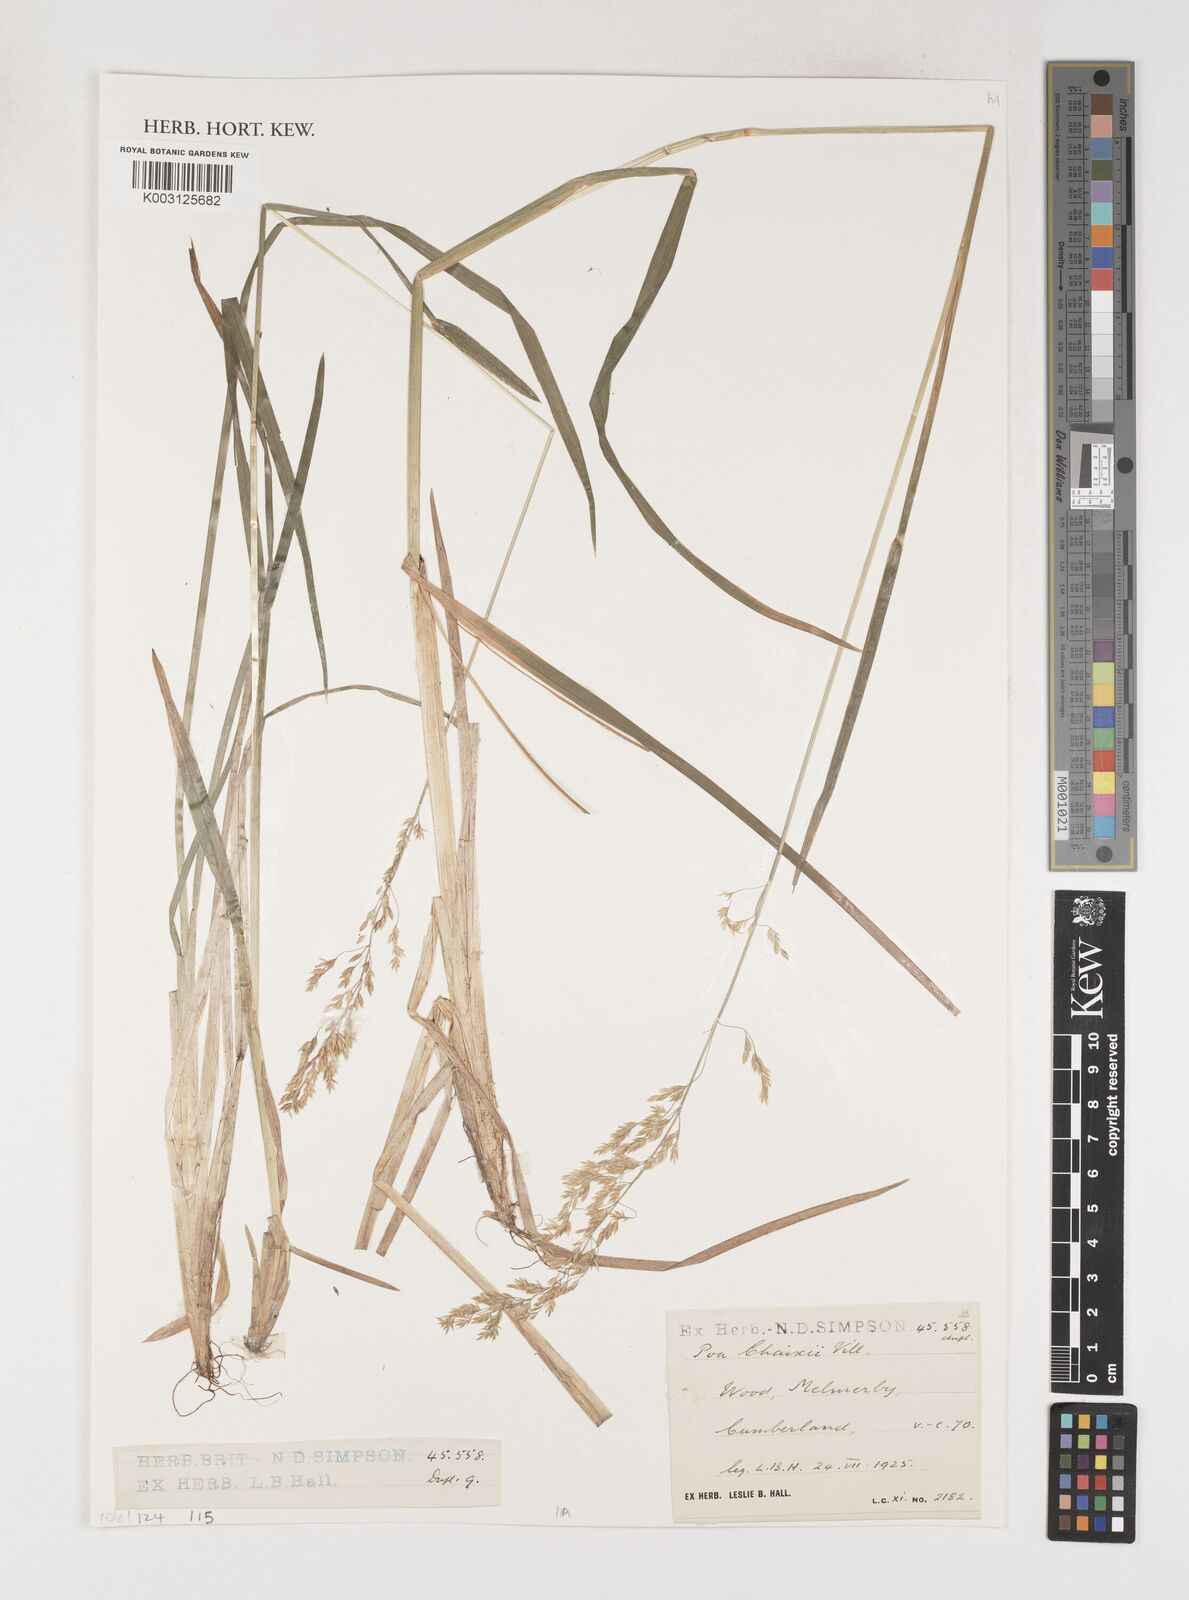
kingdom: Plantae
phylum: Tracheophyta
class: Liliopsida
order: Poales
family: Poaceae
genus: Poa
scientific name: Poa chaixii
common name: Broad-leaved meadow-grass
